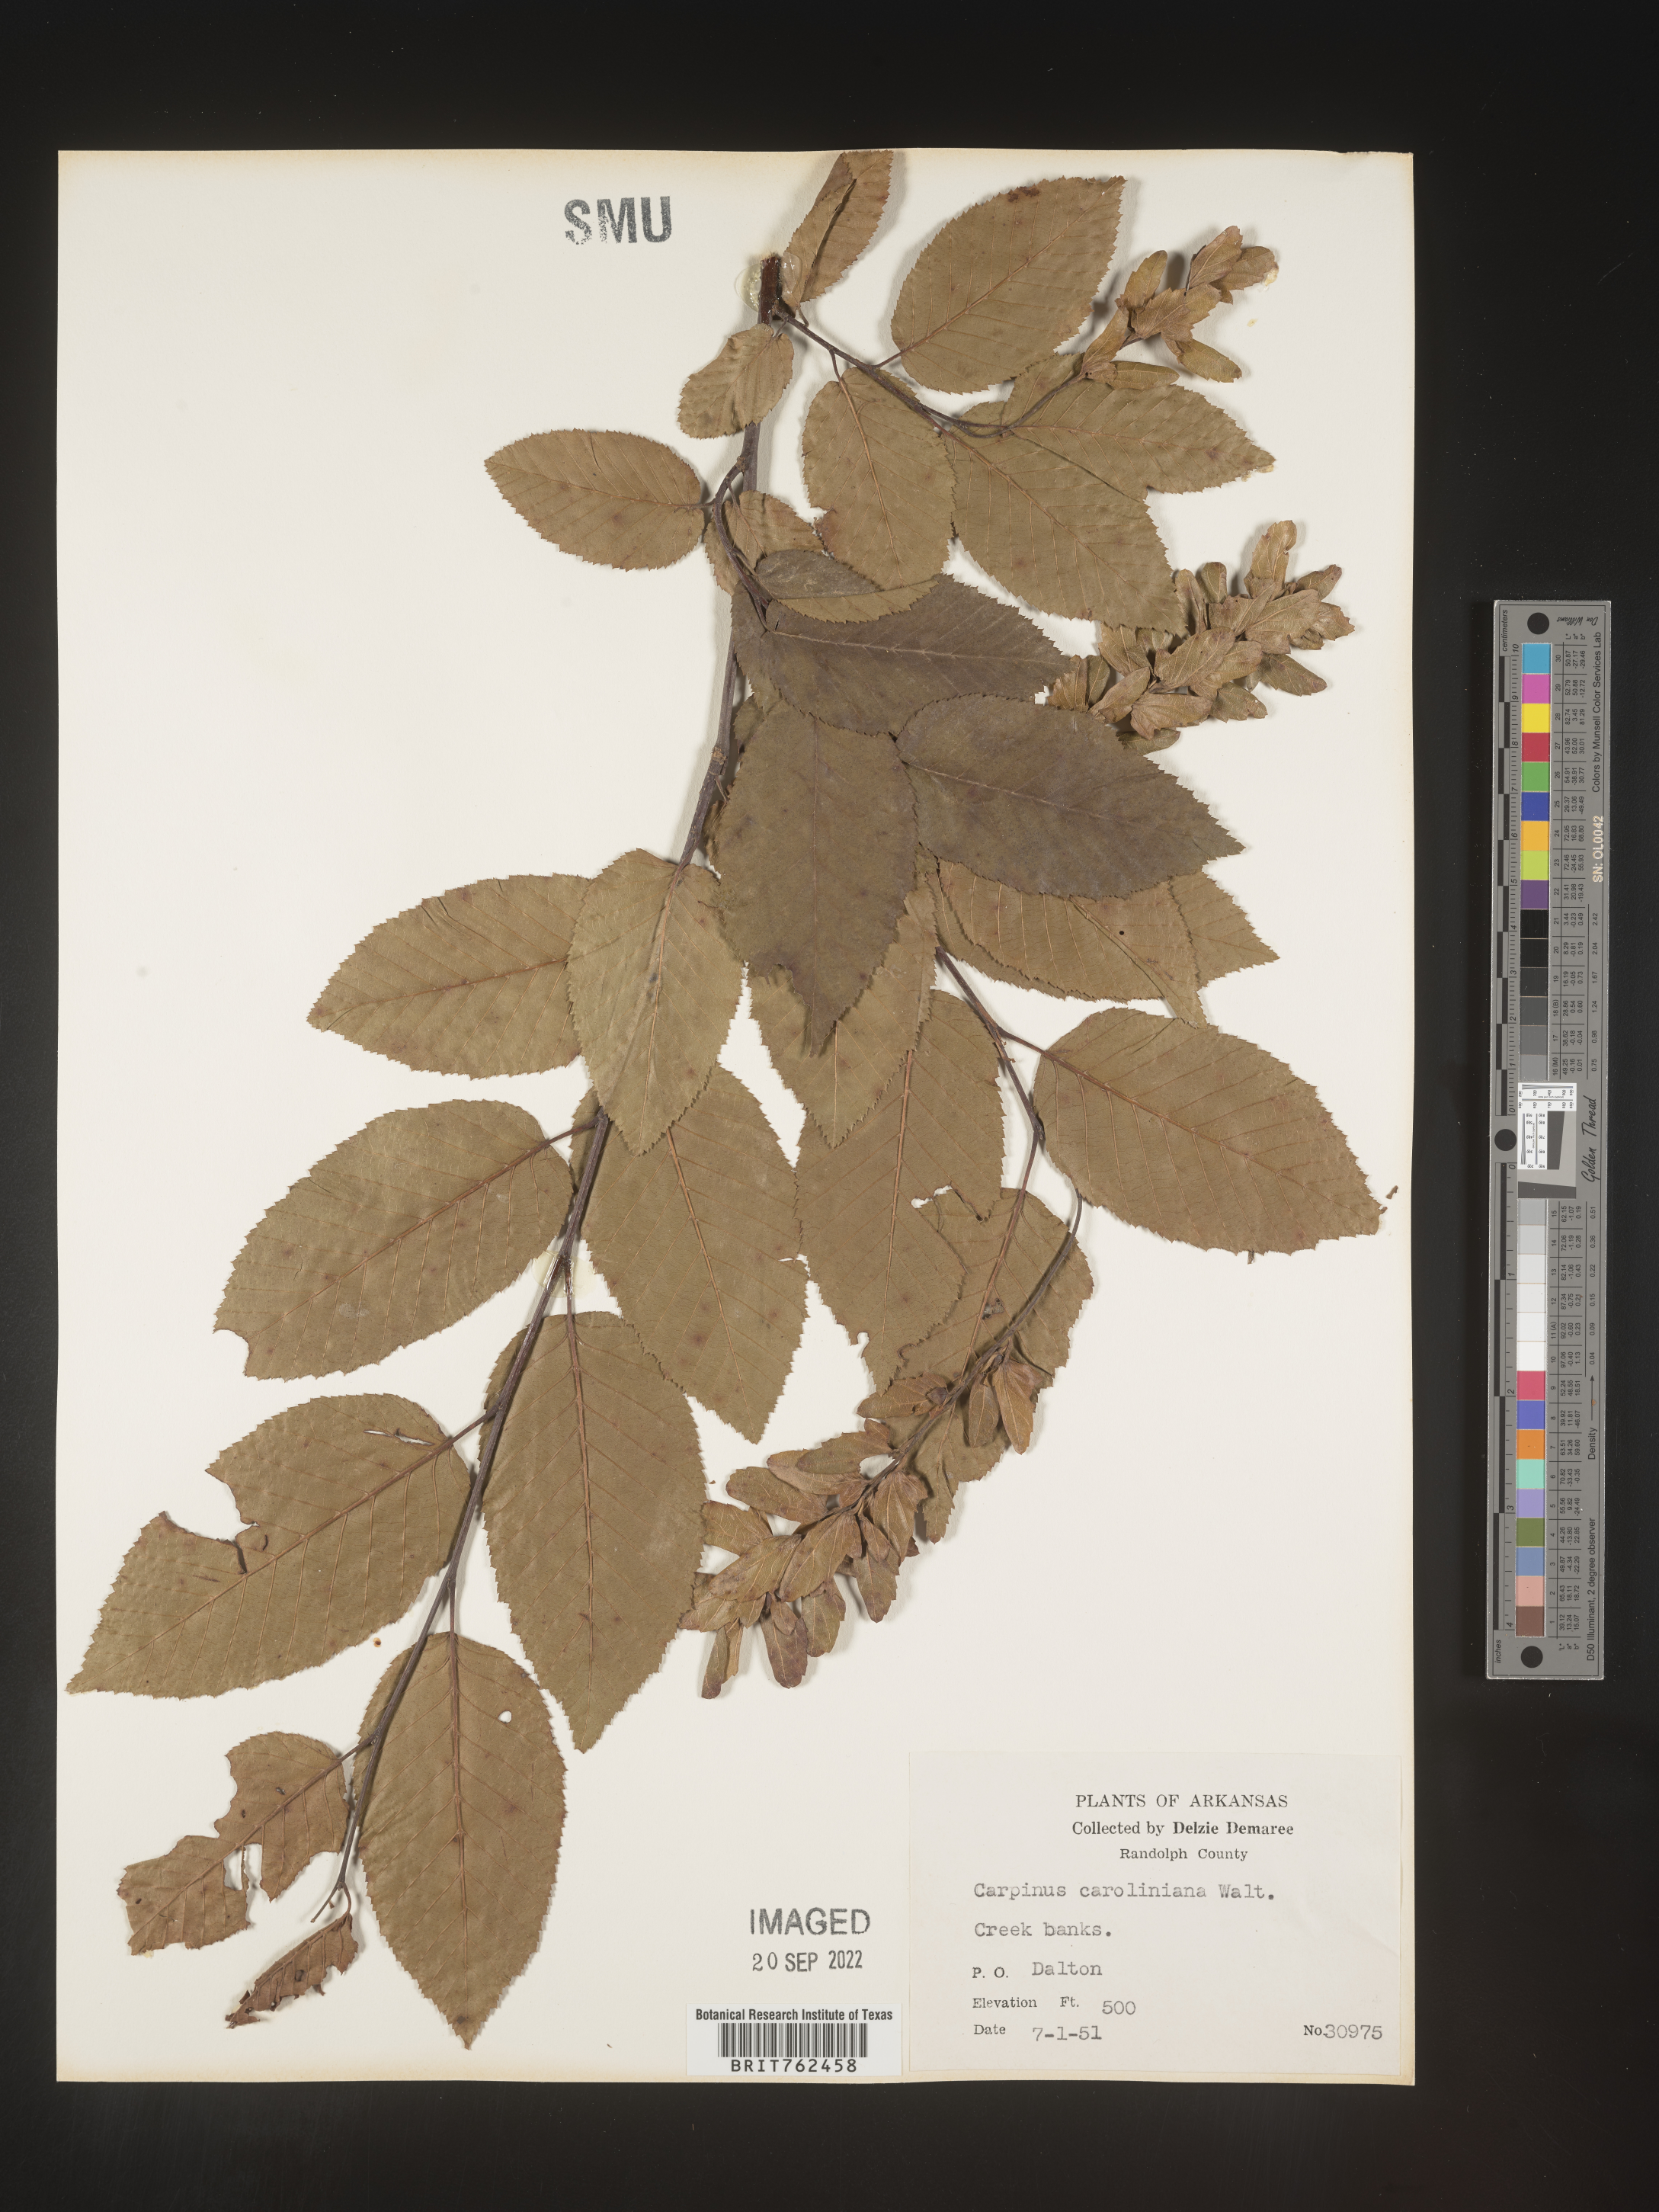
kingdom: Plantae
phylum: Tracheophyta
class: Magnoliopsida
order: Fagales
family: Betulaceae
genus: Carpinus
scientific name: Carpinus caroliniana
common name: American hornbeam
